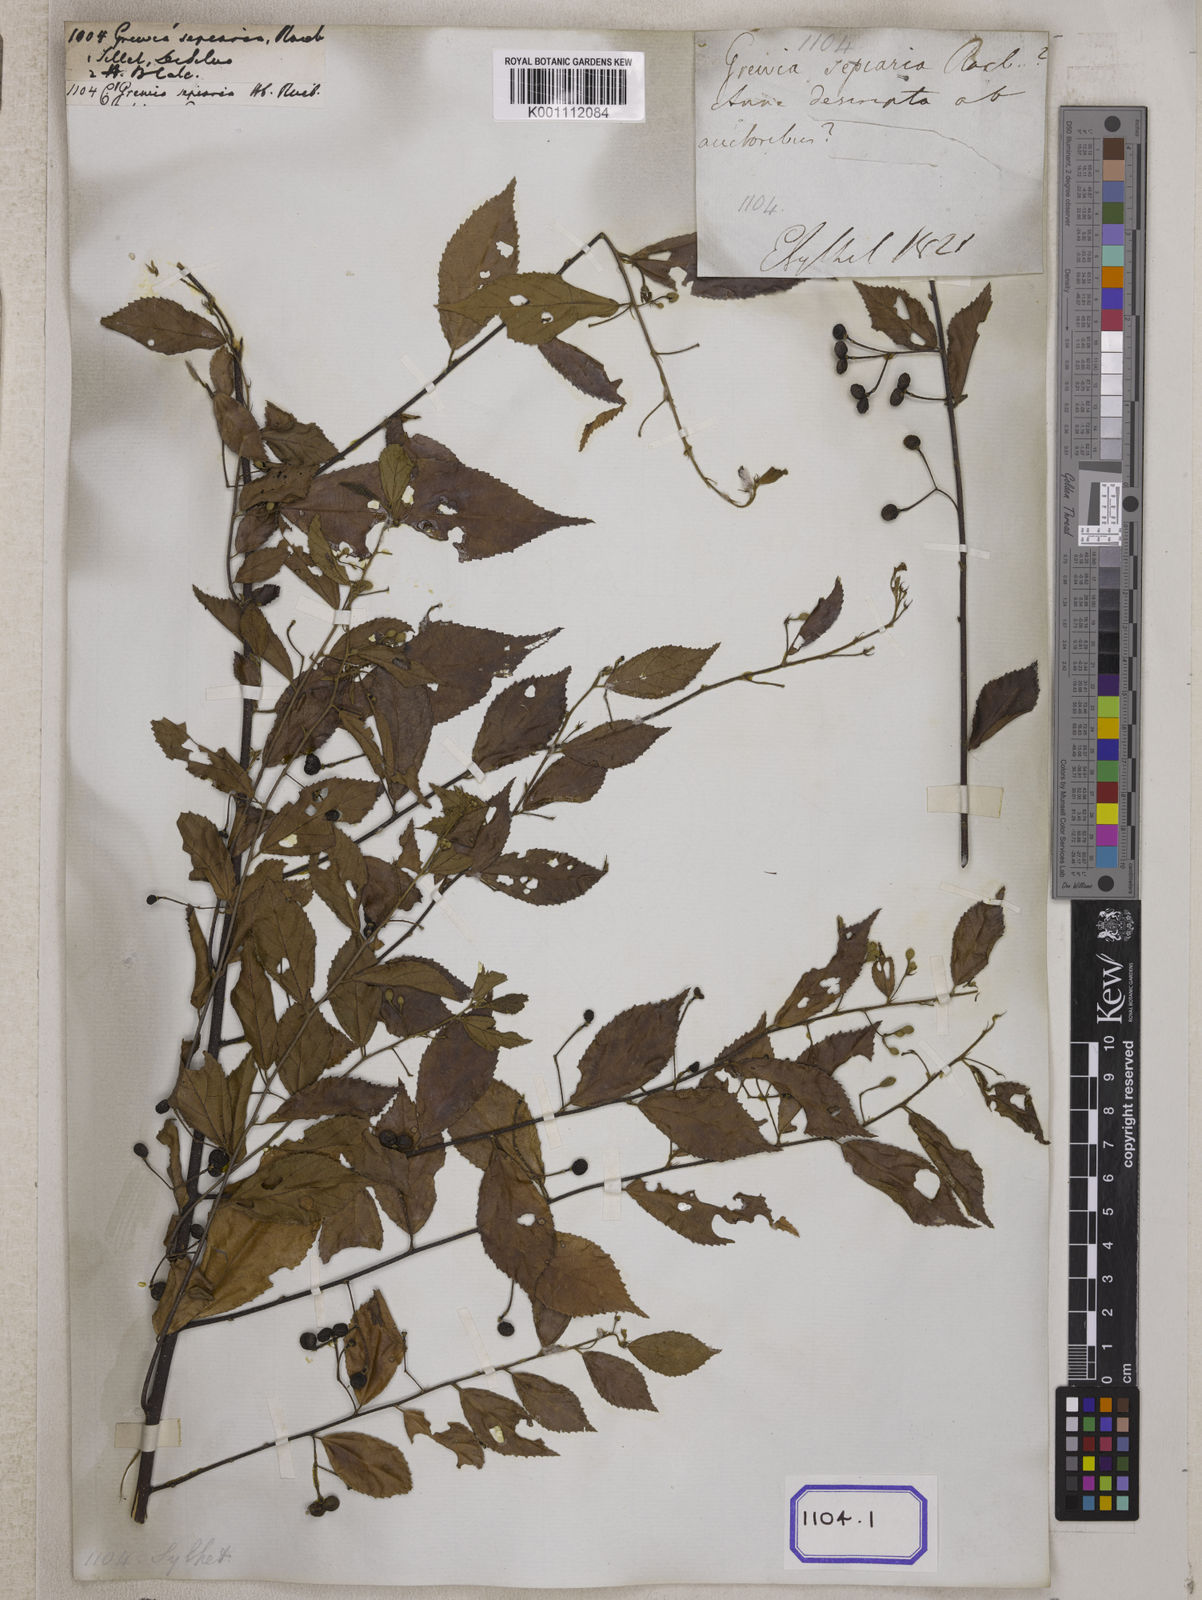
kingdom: Plantae
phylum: Tracheophyta
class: Magnoliopsida
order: Malvales
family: Malvaceae
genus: Grewia
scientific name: Grewia
